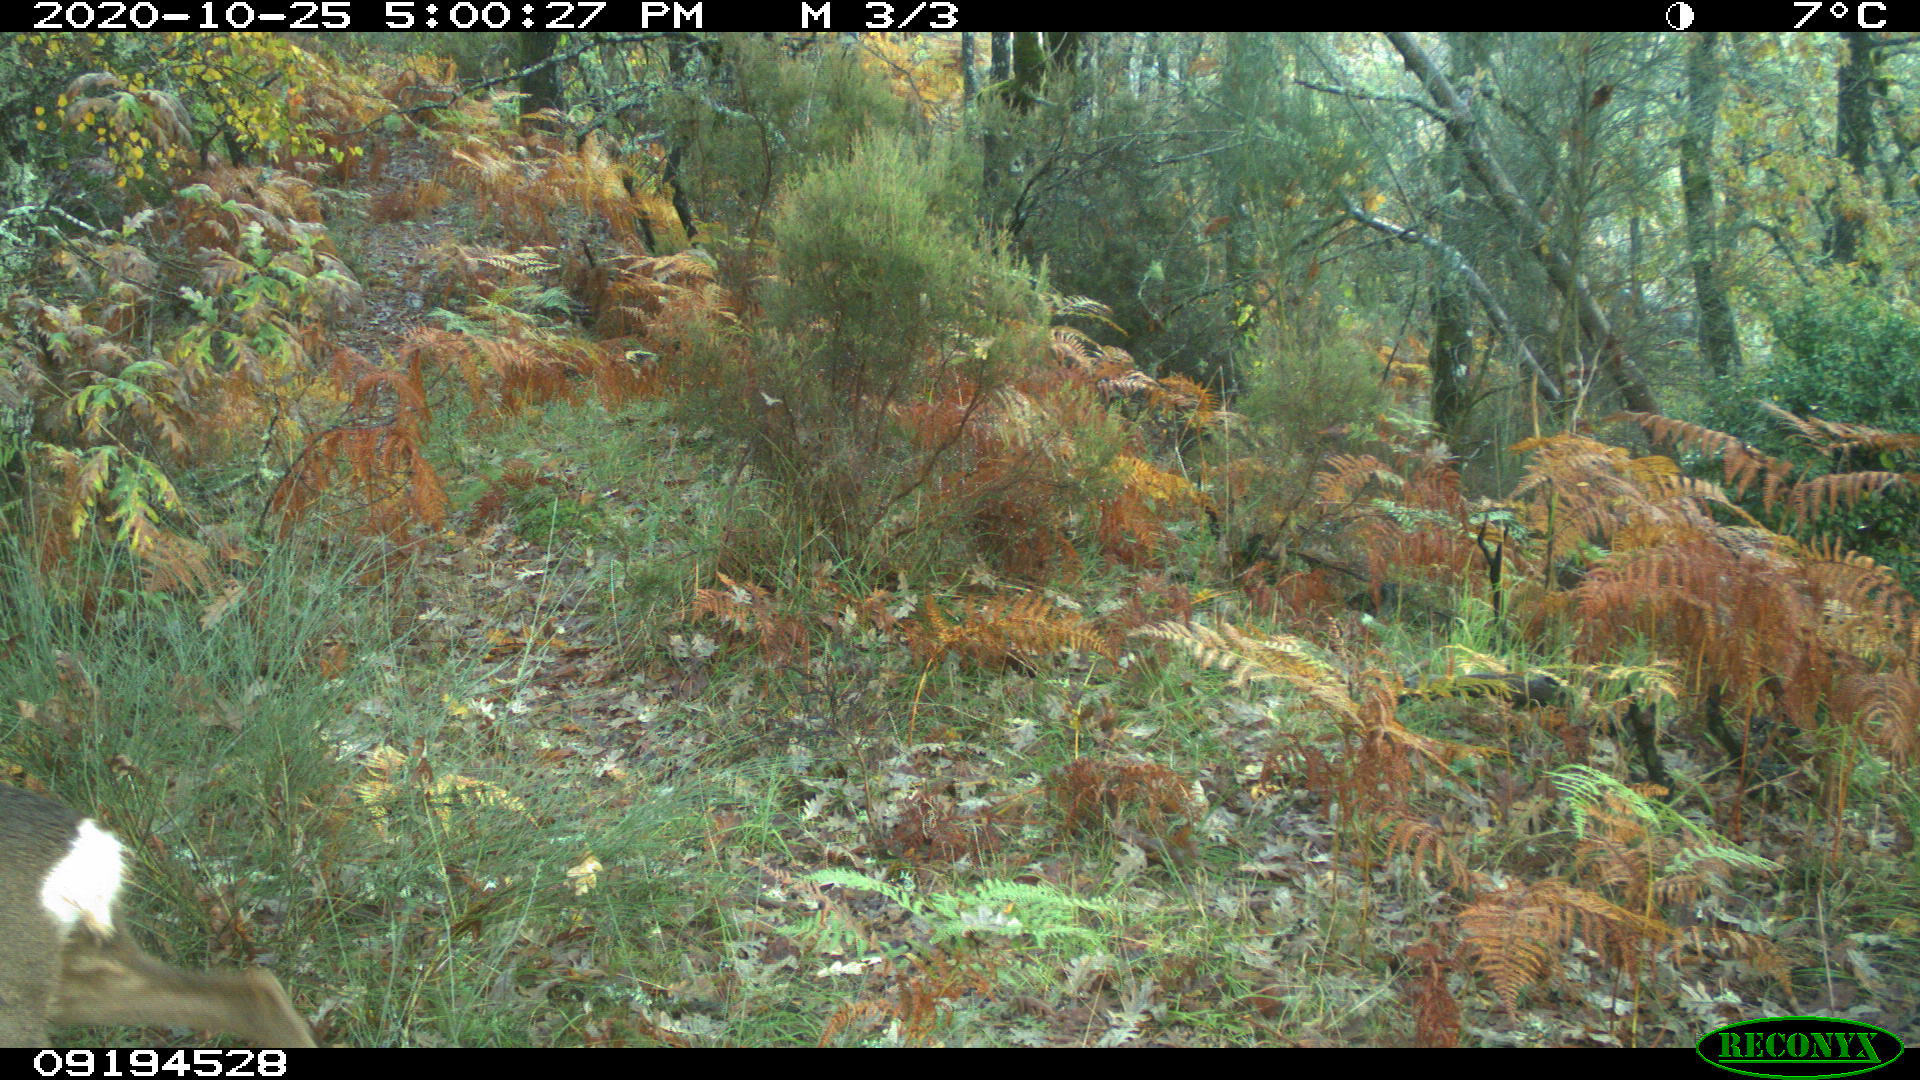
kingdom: Animalia
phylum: Chordata
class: Mammalia
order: Artiodactyla
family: Cervidae
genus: Capreolus
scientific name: Capreolus capreolus
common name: Western roe deer
